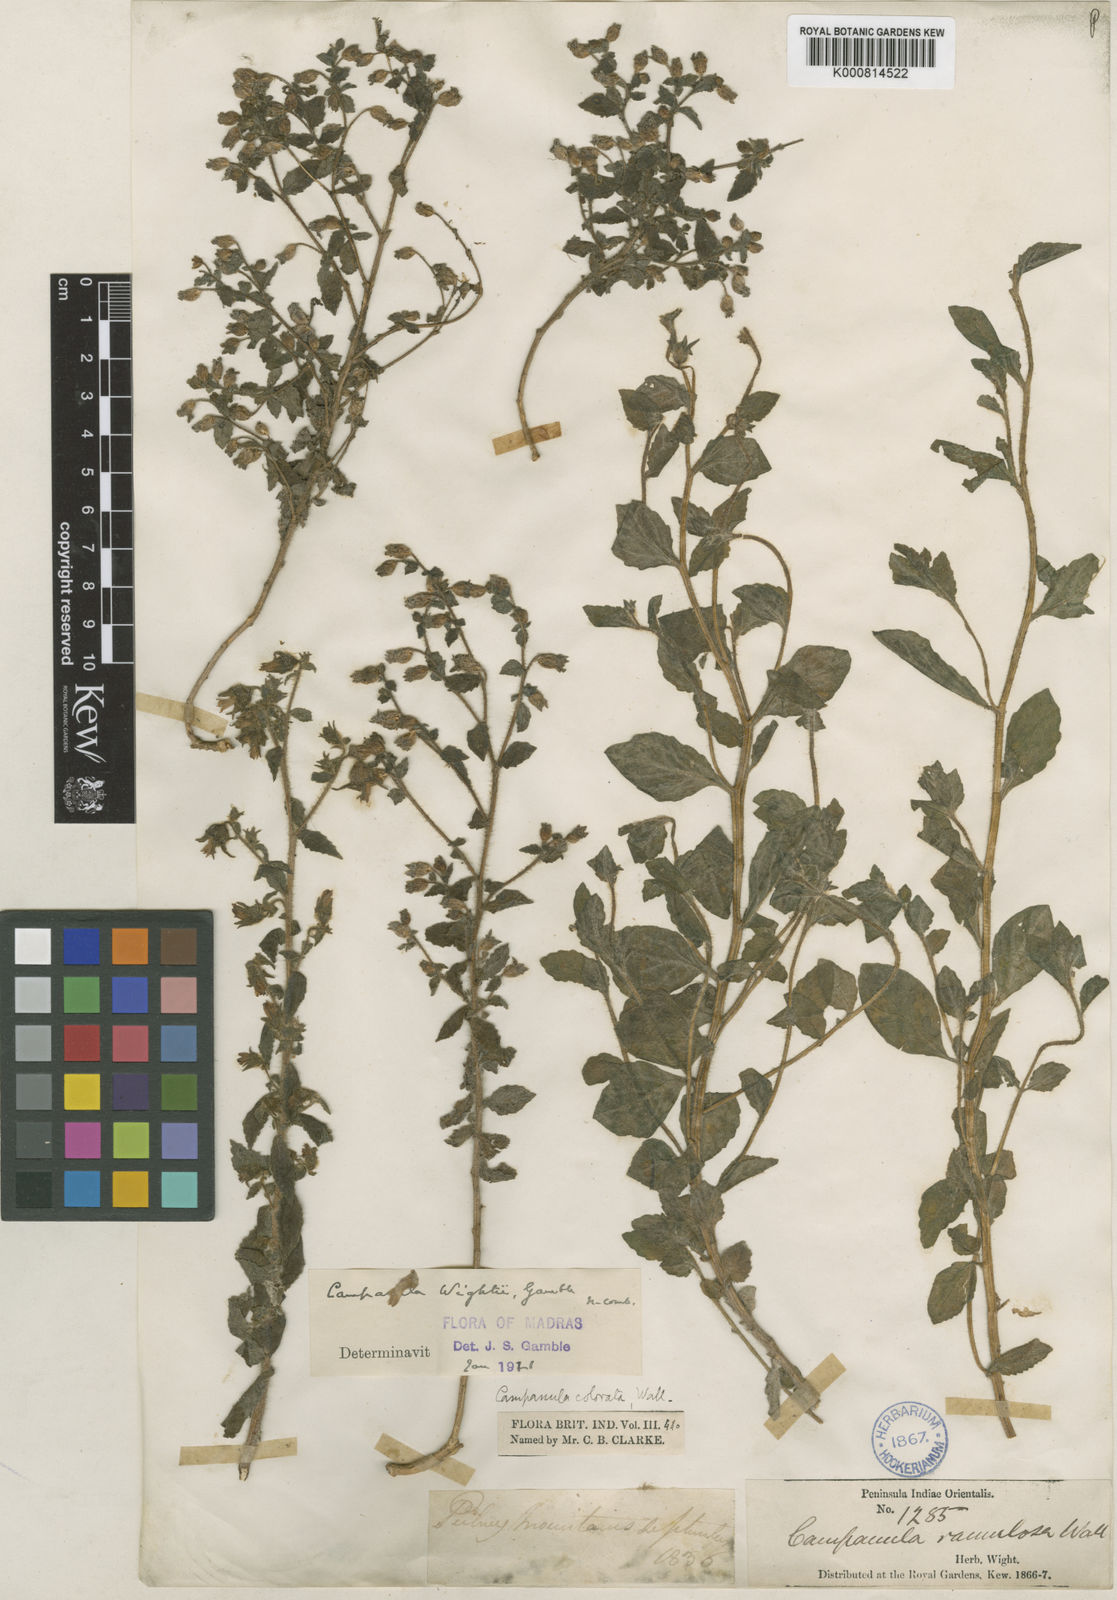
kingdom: Plantae
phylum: Tracheophyta
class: Magnoliopsida
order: Asterales
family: Campanulaceae
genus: Campanula
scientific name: Campanula pallida
